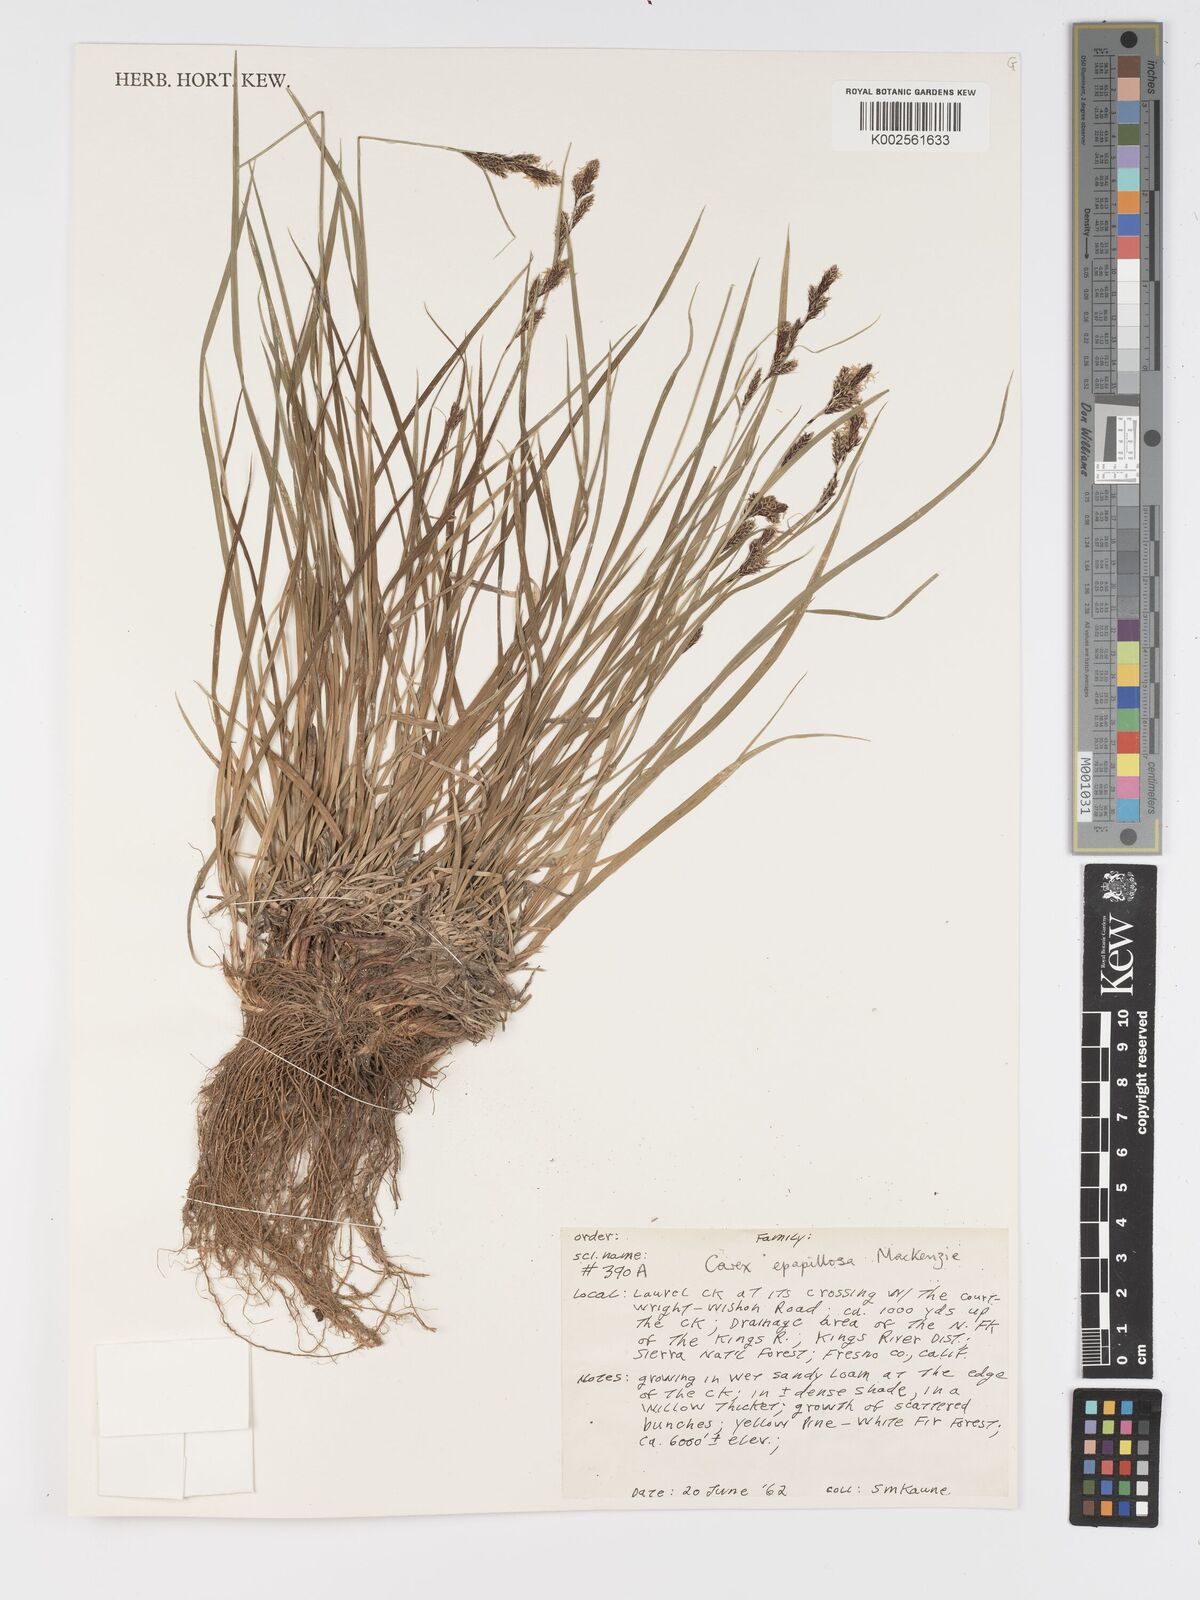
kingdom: Plantae
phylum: Tracheophyta
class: Liliopsida
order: Poales
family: Cyperaceae
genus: Carex
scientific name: Carex heteroneura
